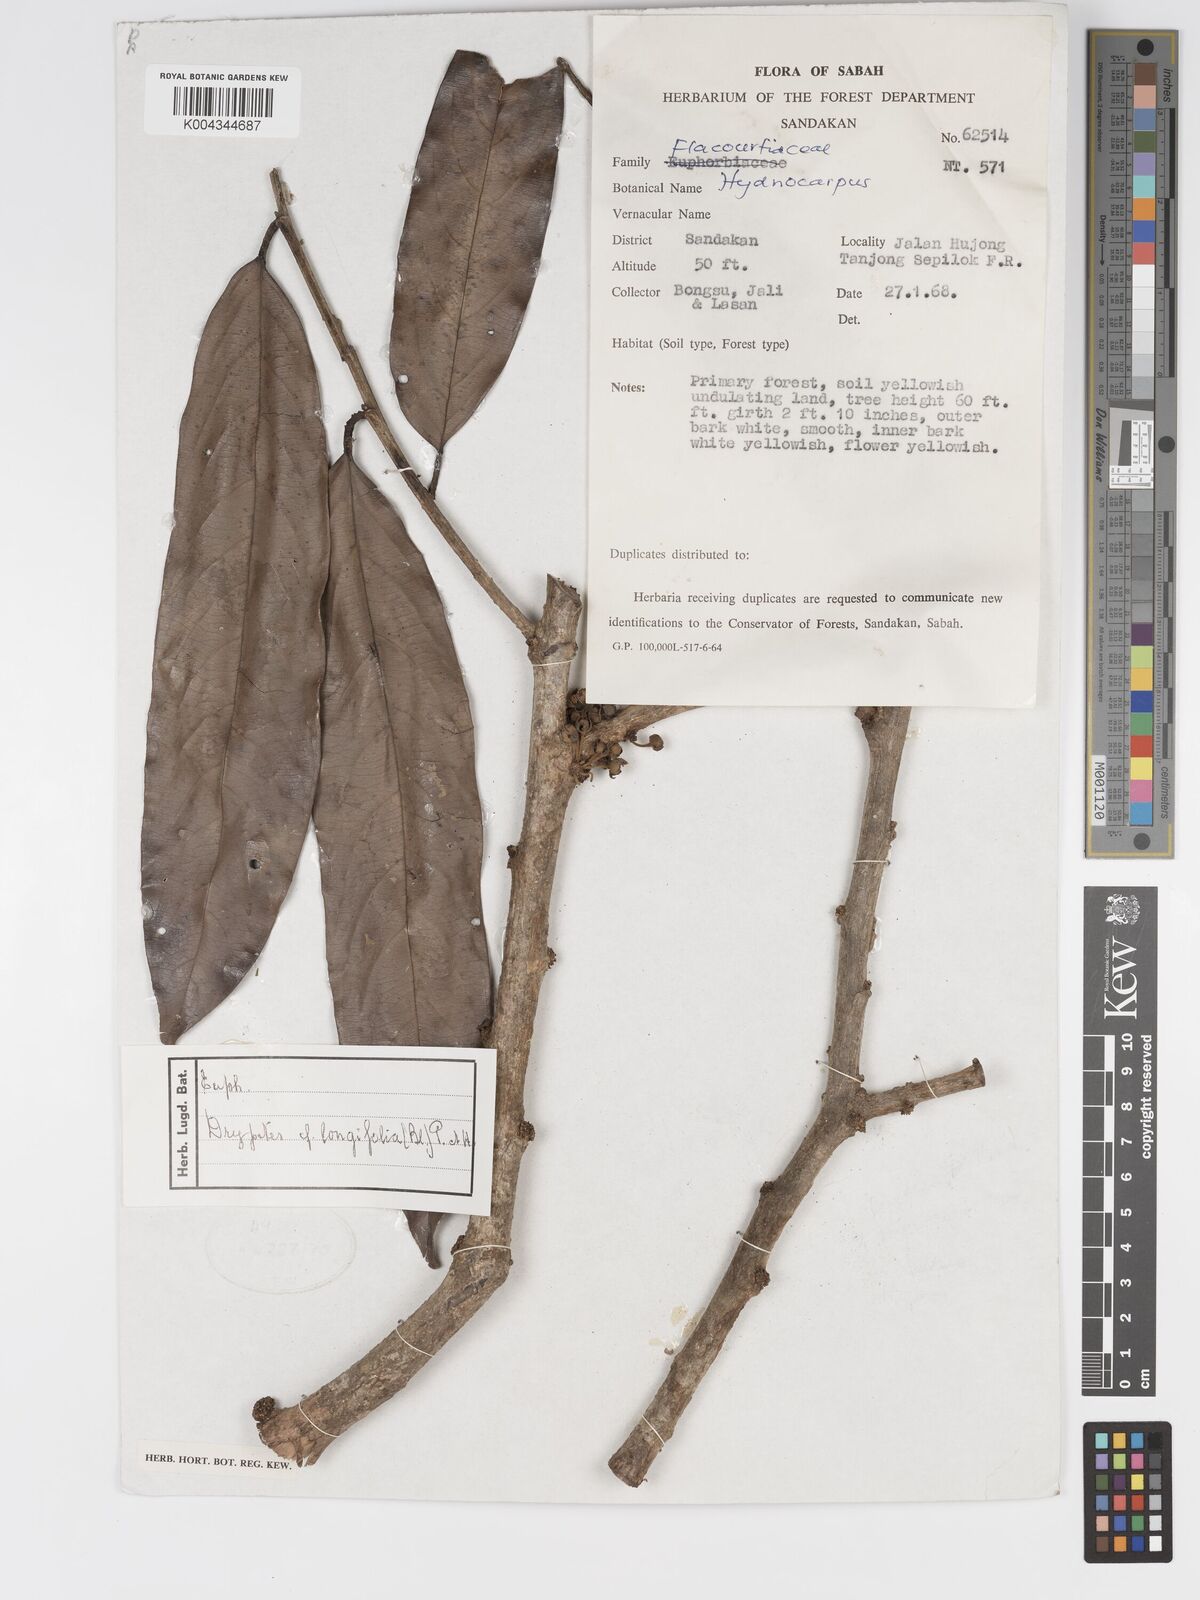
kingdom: Plantae
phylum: Tracheophyta
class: Magnoliopsida
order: Malpighiales
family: Putranjivaceae
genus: Drypetes
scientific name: Drypetes longifolia
